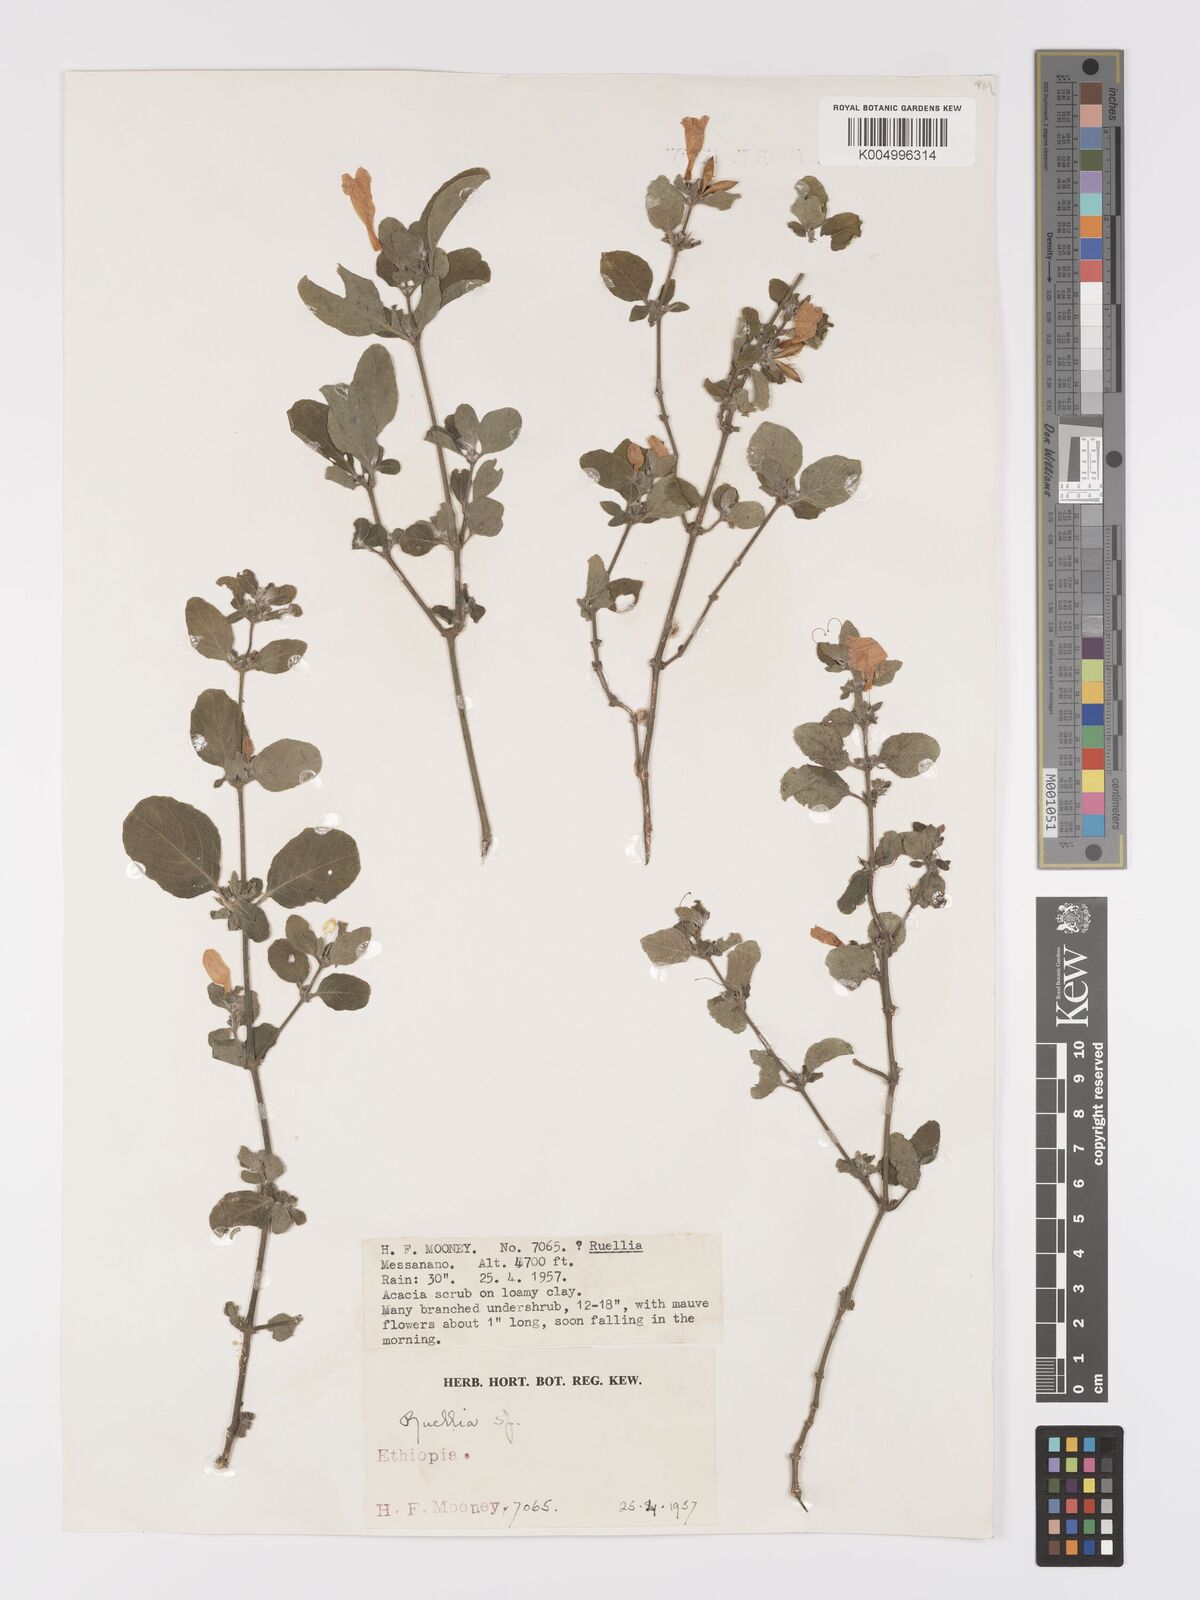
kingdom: Plantae
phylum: Tracheophyta
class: Magnoliopsida
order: Lamiales
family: Acanthaceae
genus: Ruellia
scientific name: Ruellia patula
